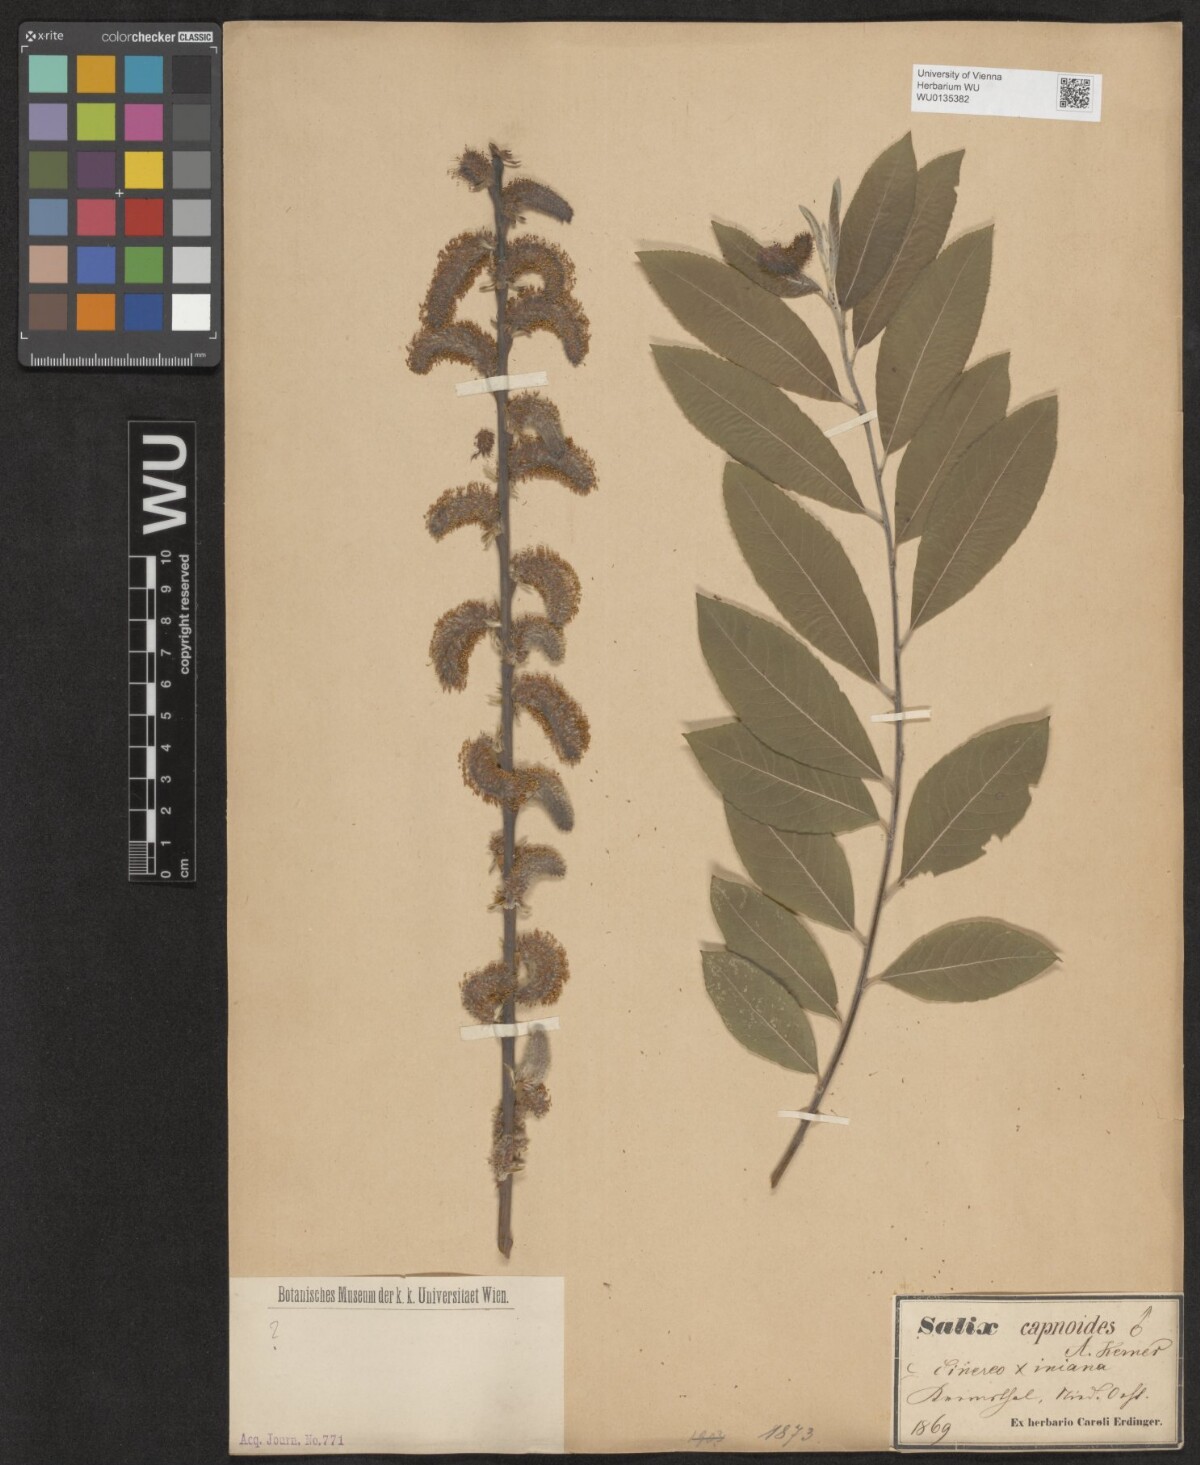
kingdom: Plantae
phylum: Tracheophyta
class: Magnoliopsida
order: Malpighiales
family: Salicaceae
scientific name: Salicaceae
